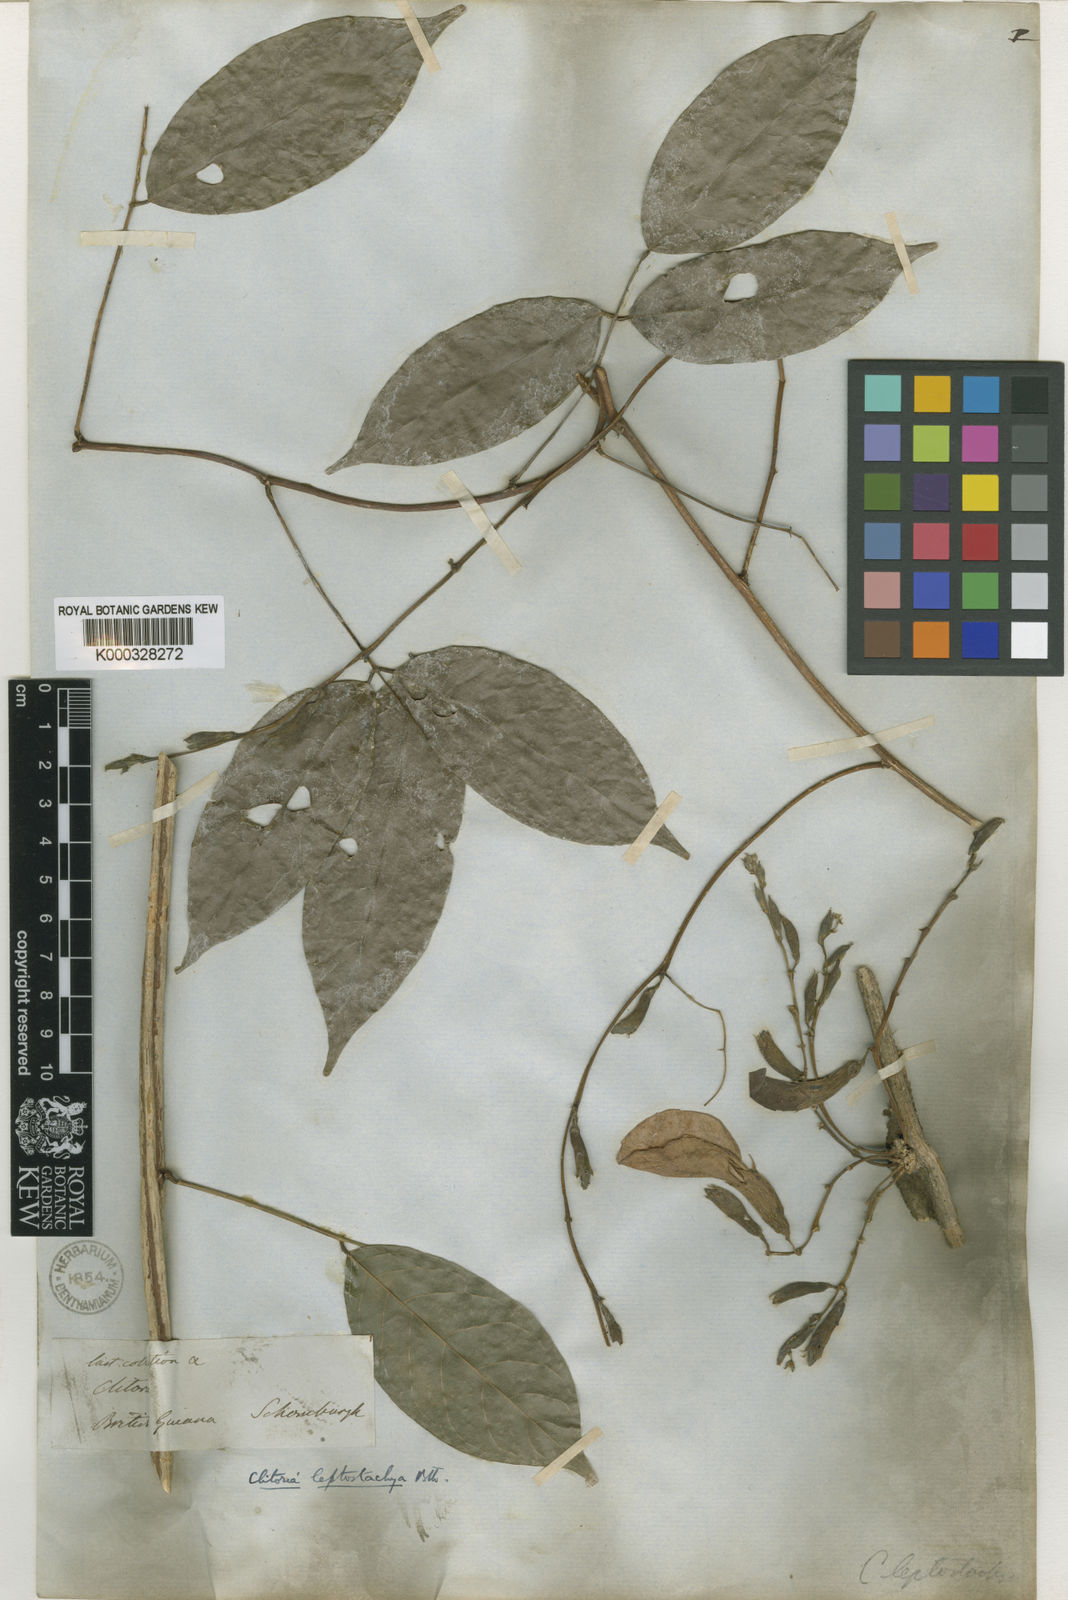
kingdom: Plantae
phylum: Tracheophyta
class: Magnoliopsida
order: Fabales
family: Fabaceae
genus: Clitoria
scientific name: Clitoria
